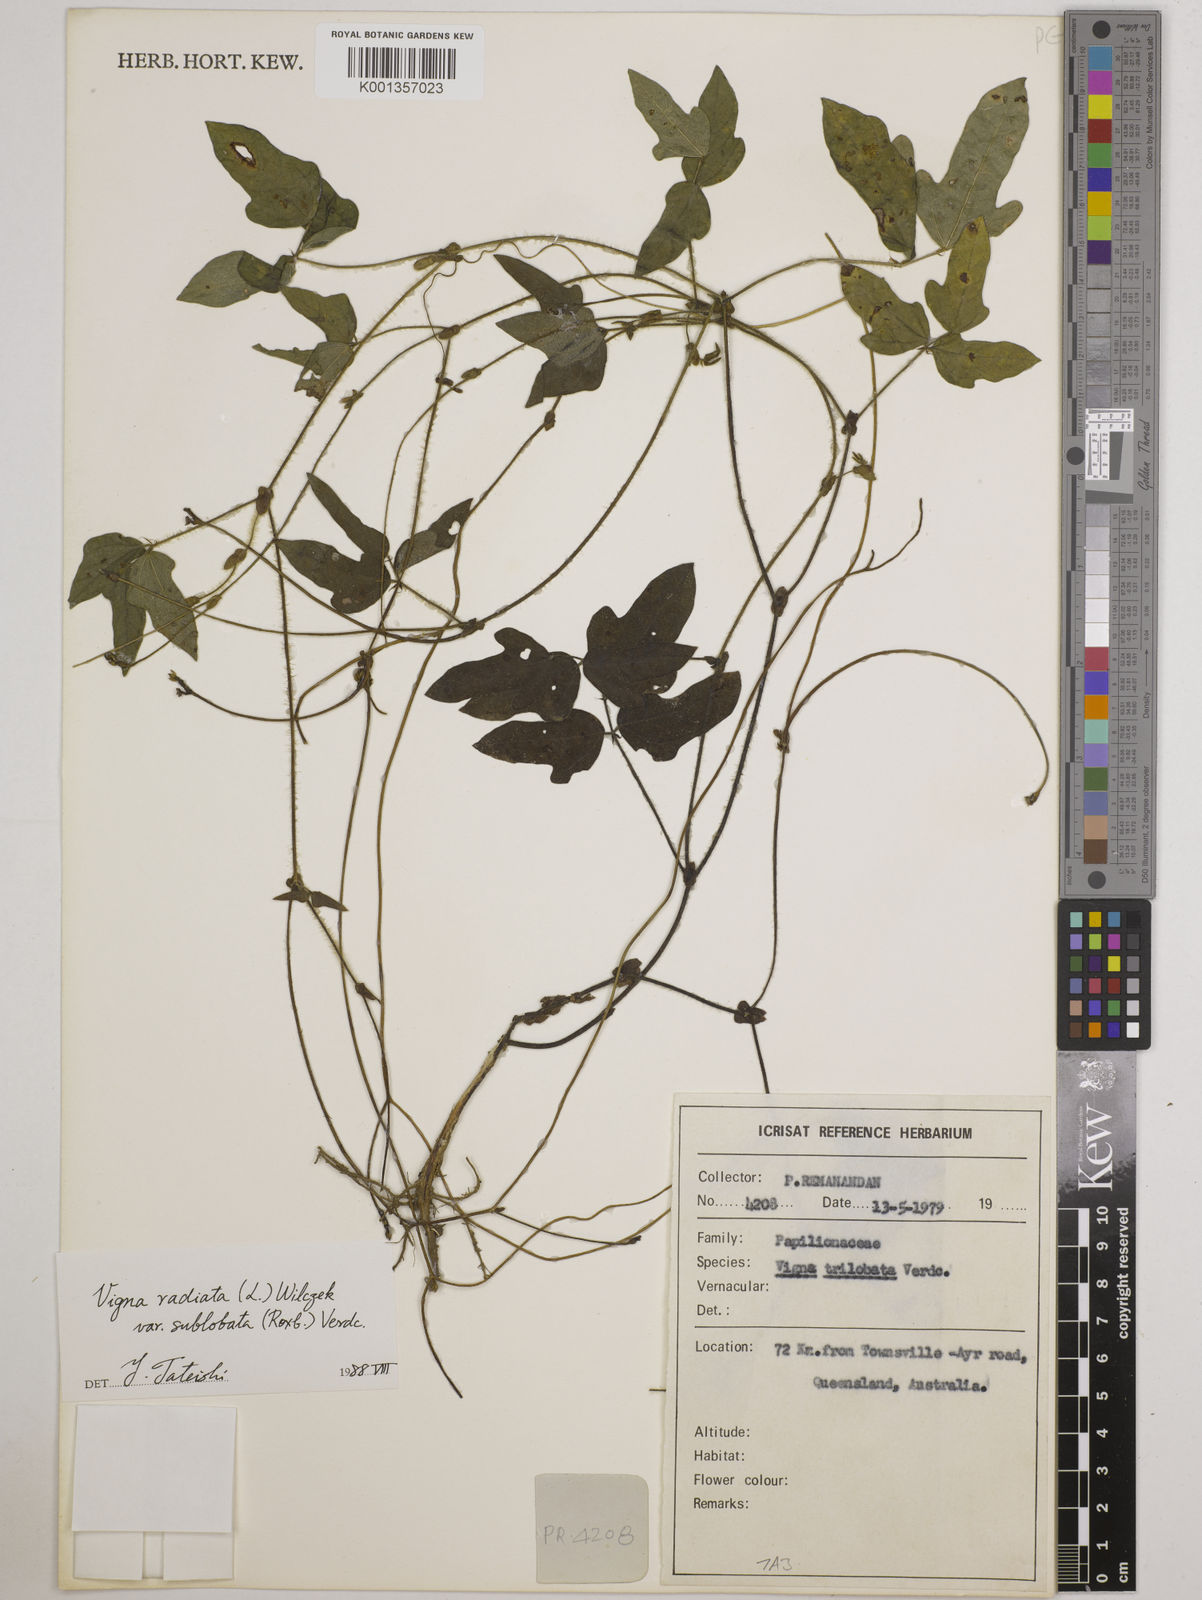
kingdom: Plantae
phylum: Tracheophyta
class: Magnoliopsida
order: Fabales
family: Fabaceae
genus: Vigna
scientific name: Vigna trilobata
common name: Jungli-bean
